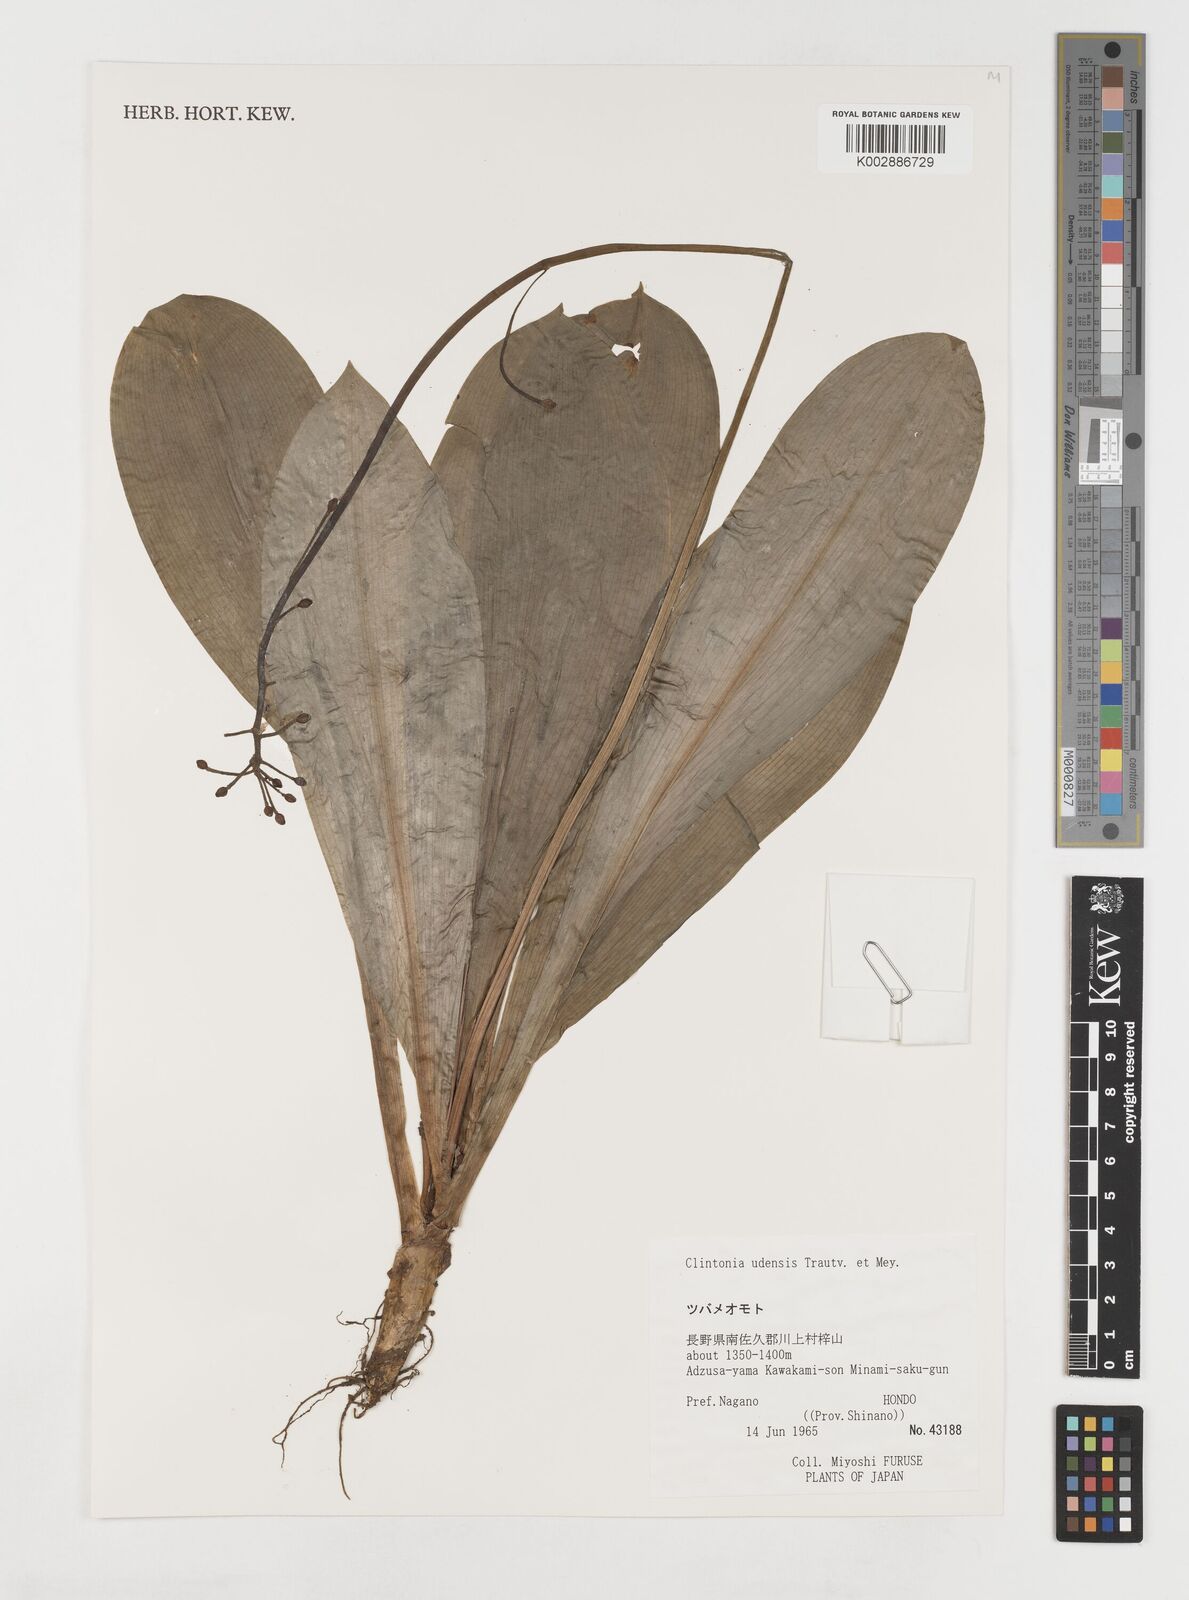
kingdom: Plantae
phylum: Tracheophyta
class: Liliopsida
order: Liliales
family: Liliaceae
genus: Clintonia
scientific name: Clintonia udensis
